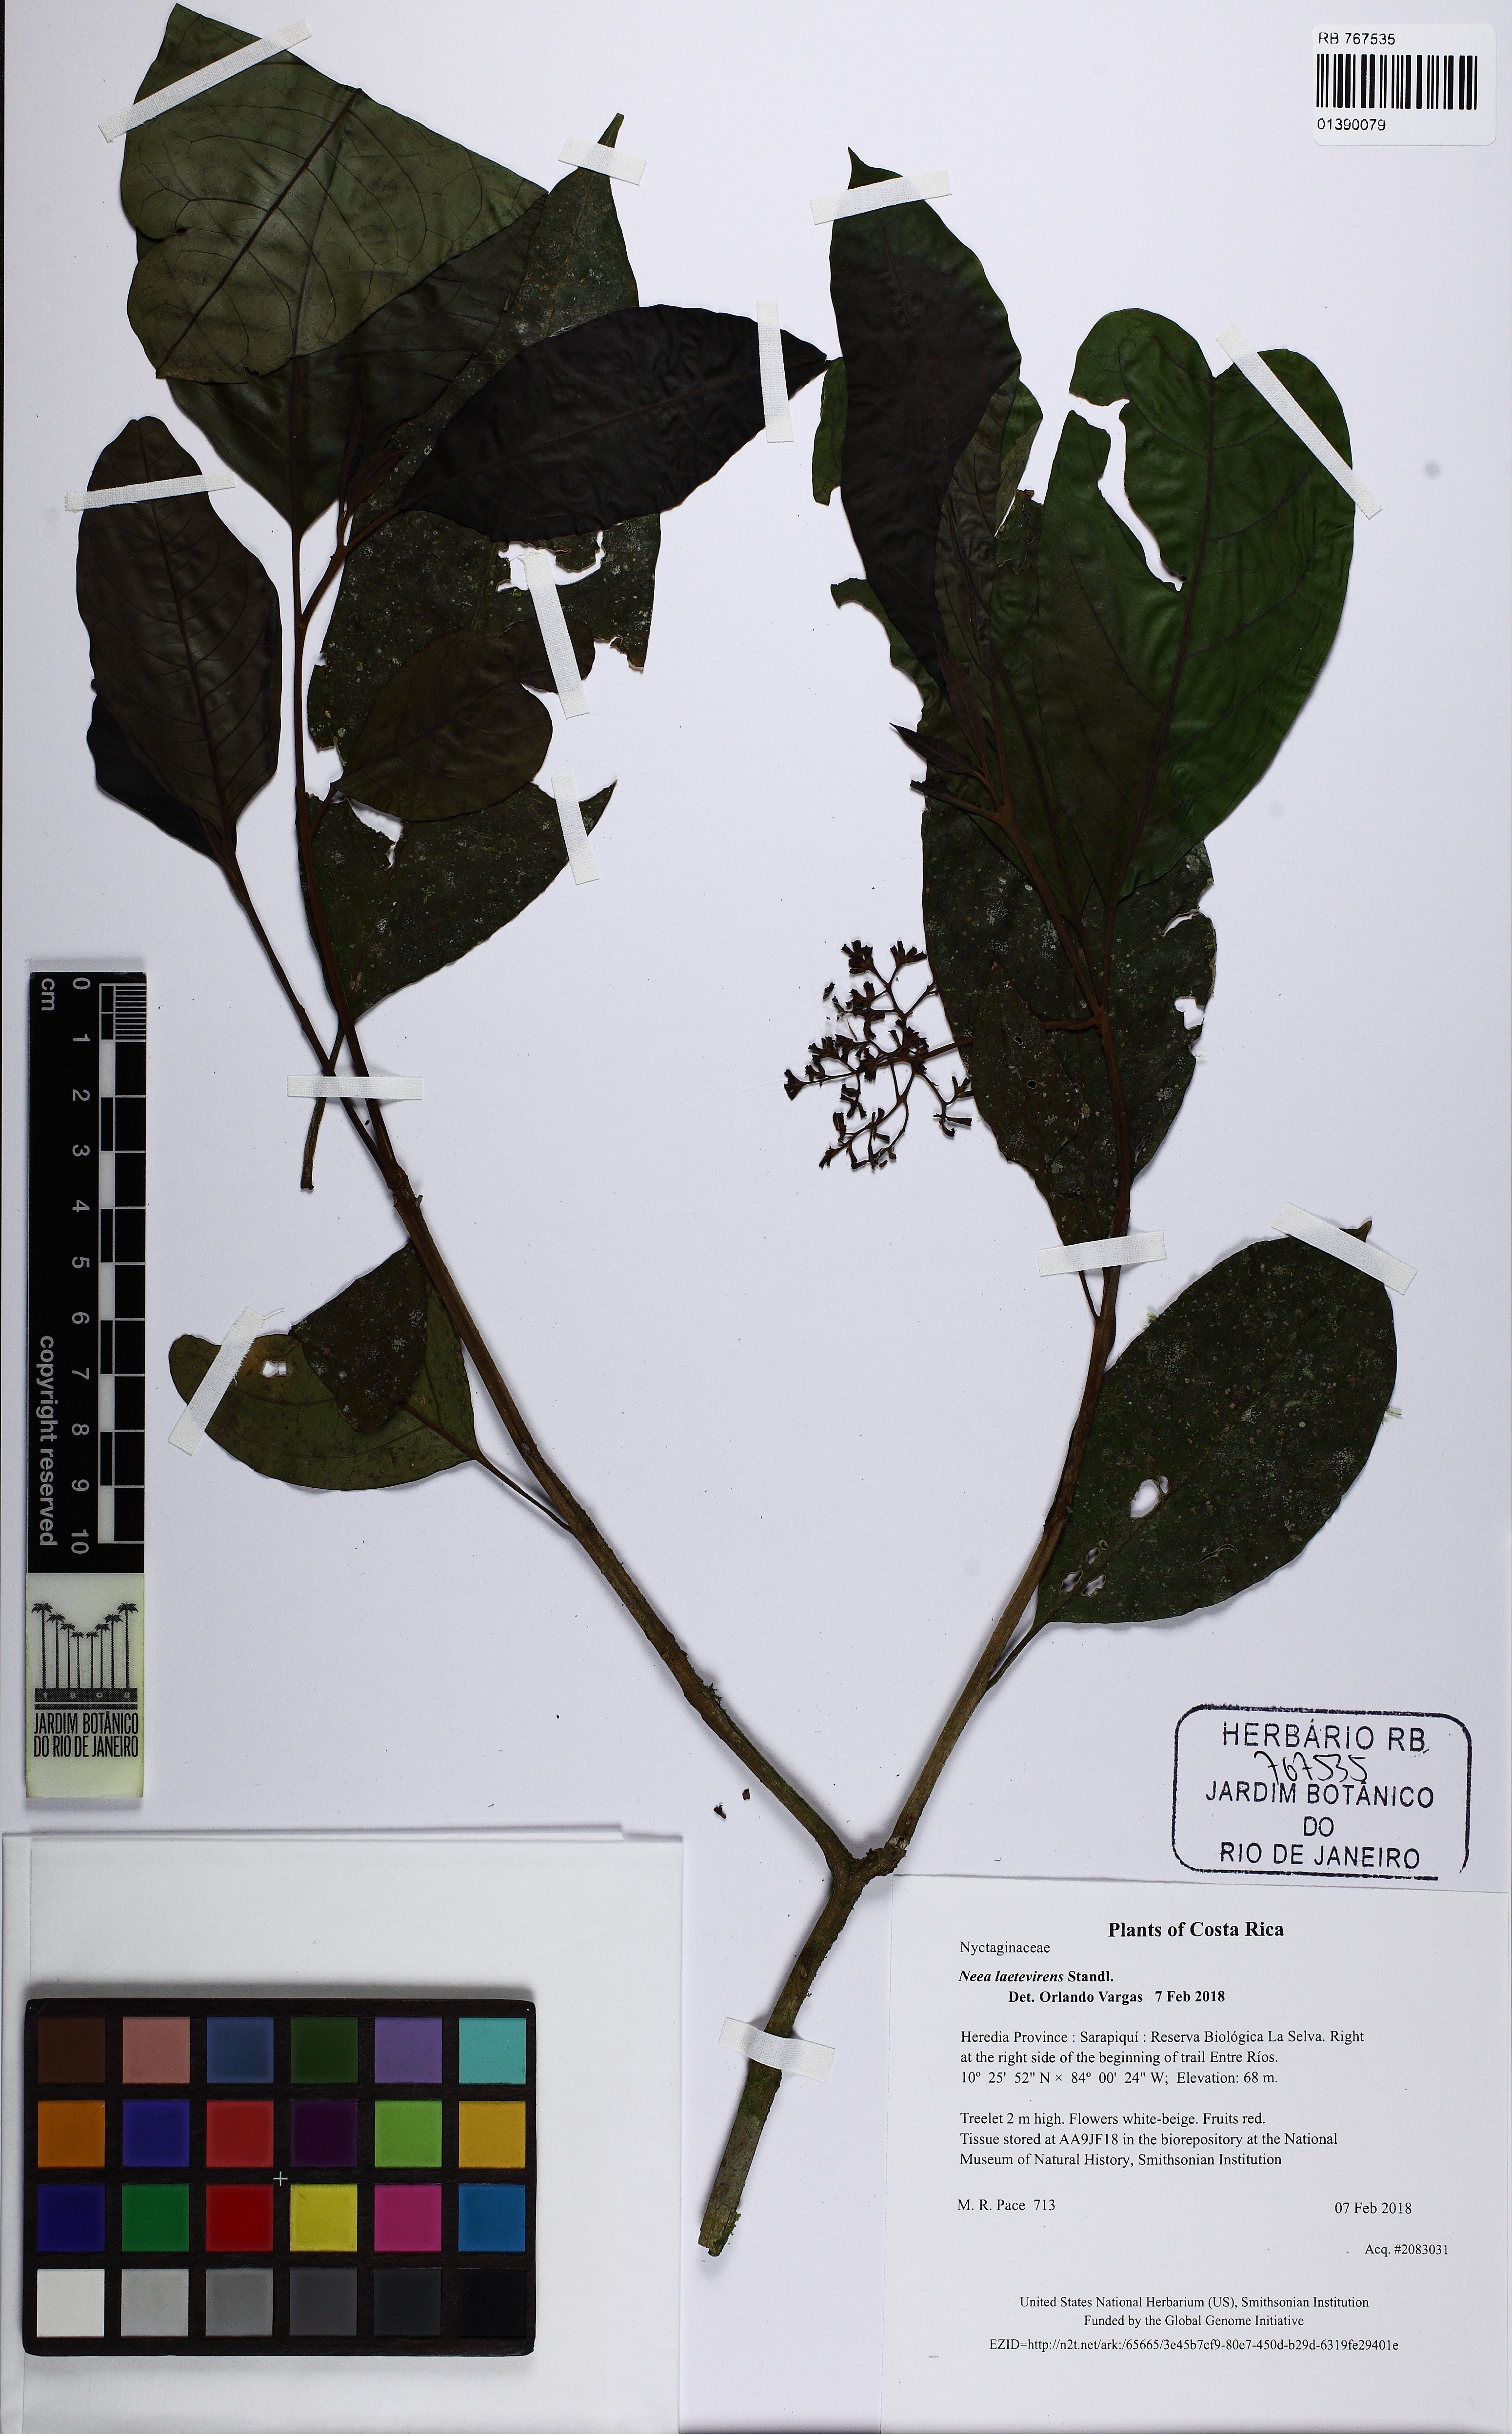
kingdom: Plantae
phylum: Tracheophyta
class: Magnoliopsida
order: Caryophyllales
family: Nyctaginaceae
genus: Neea
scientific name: Neea psychotrioides
